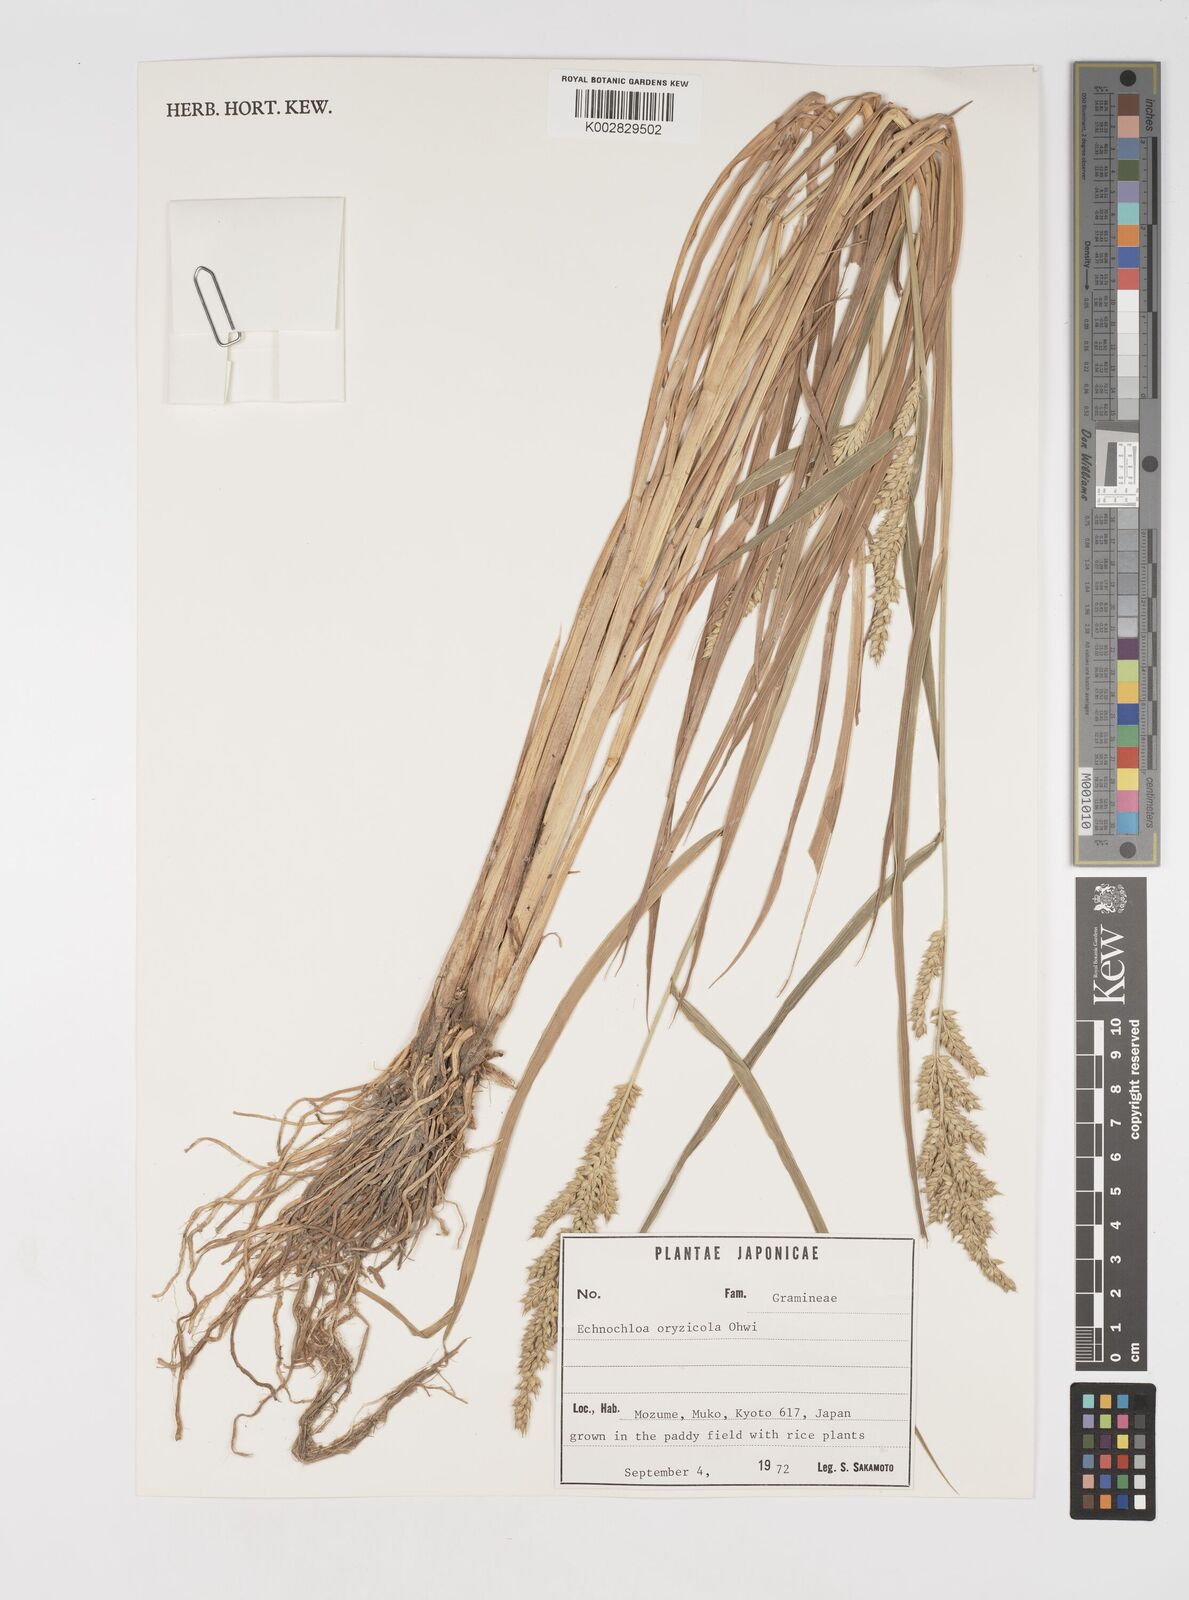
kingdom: Plantae
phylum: Tracheophyta
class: Liliopsida
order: Poales
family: Poaceae
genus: Echinochloa
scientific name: Echinochloa oryzoides
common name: Early water grass
